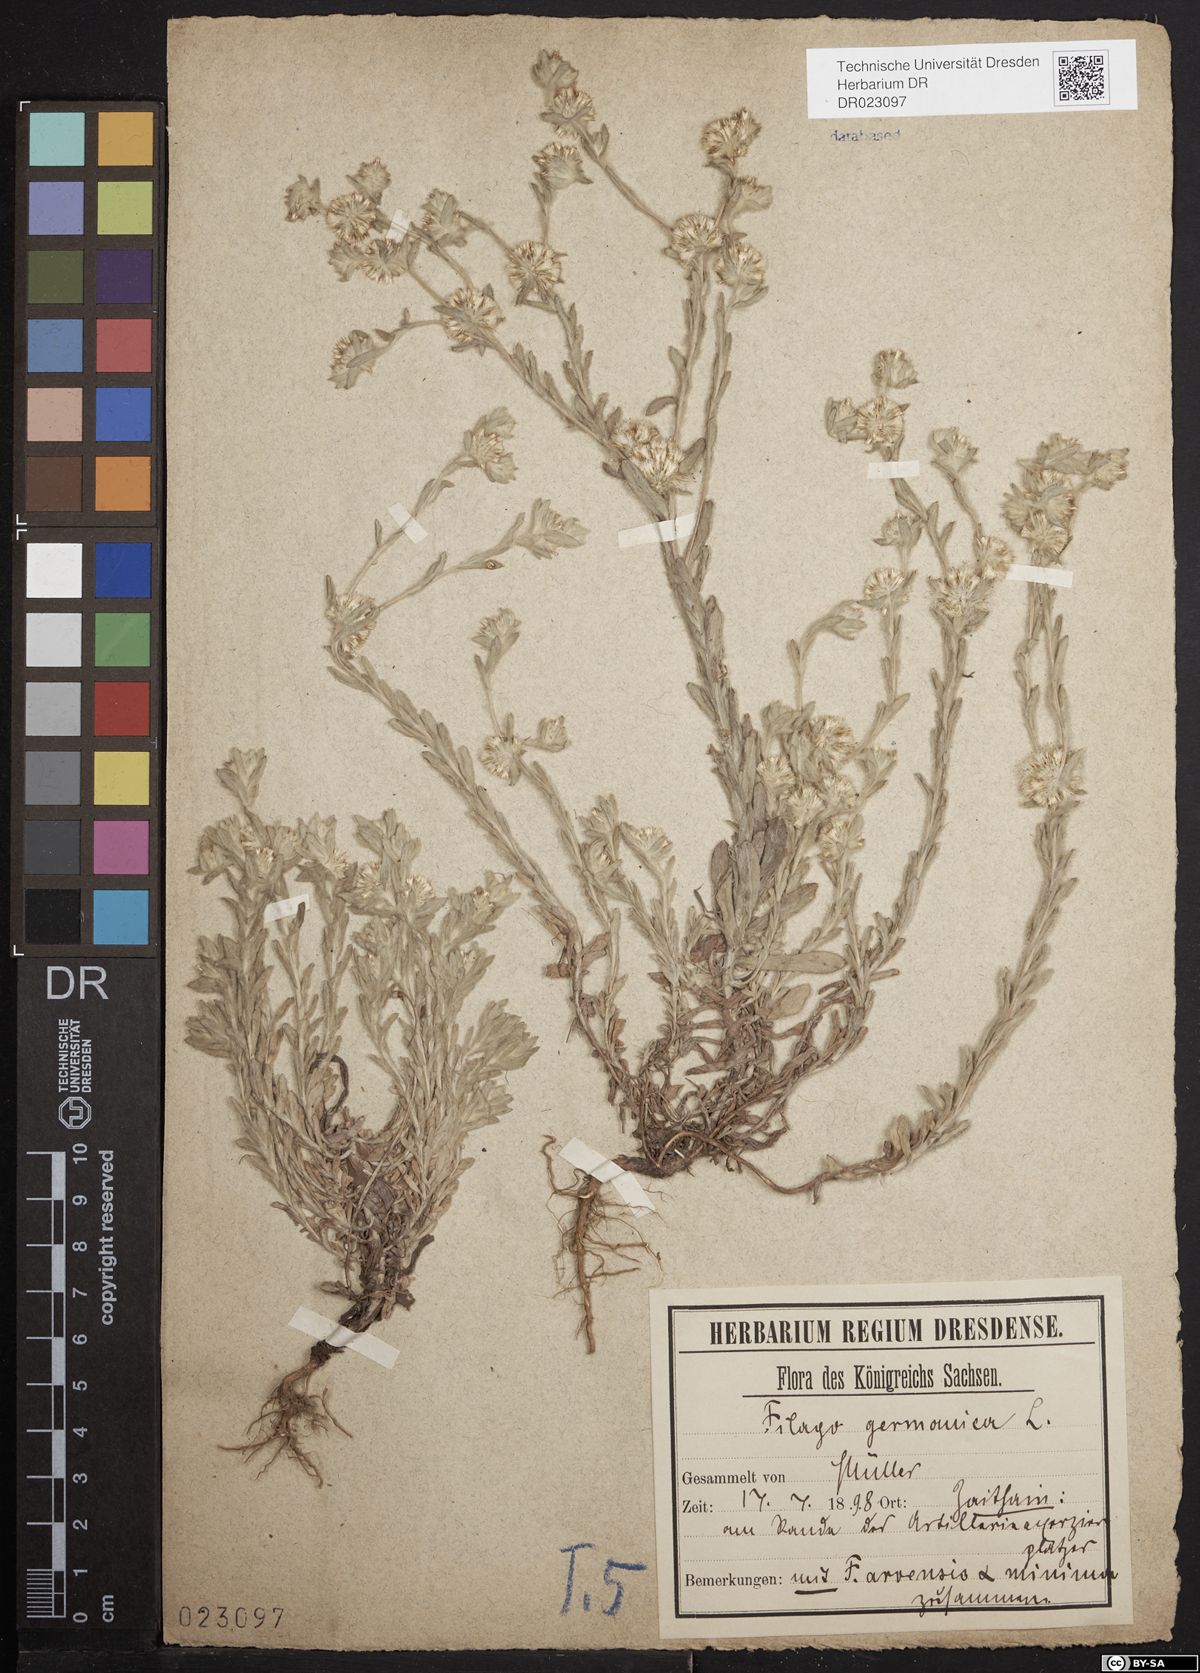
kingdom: Plantae
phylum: Tracheophyta
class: Magnoliopsida
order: Asterales
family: Asteraceae
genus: Filago
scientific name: Filago germanica
